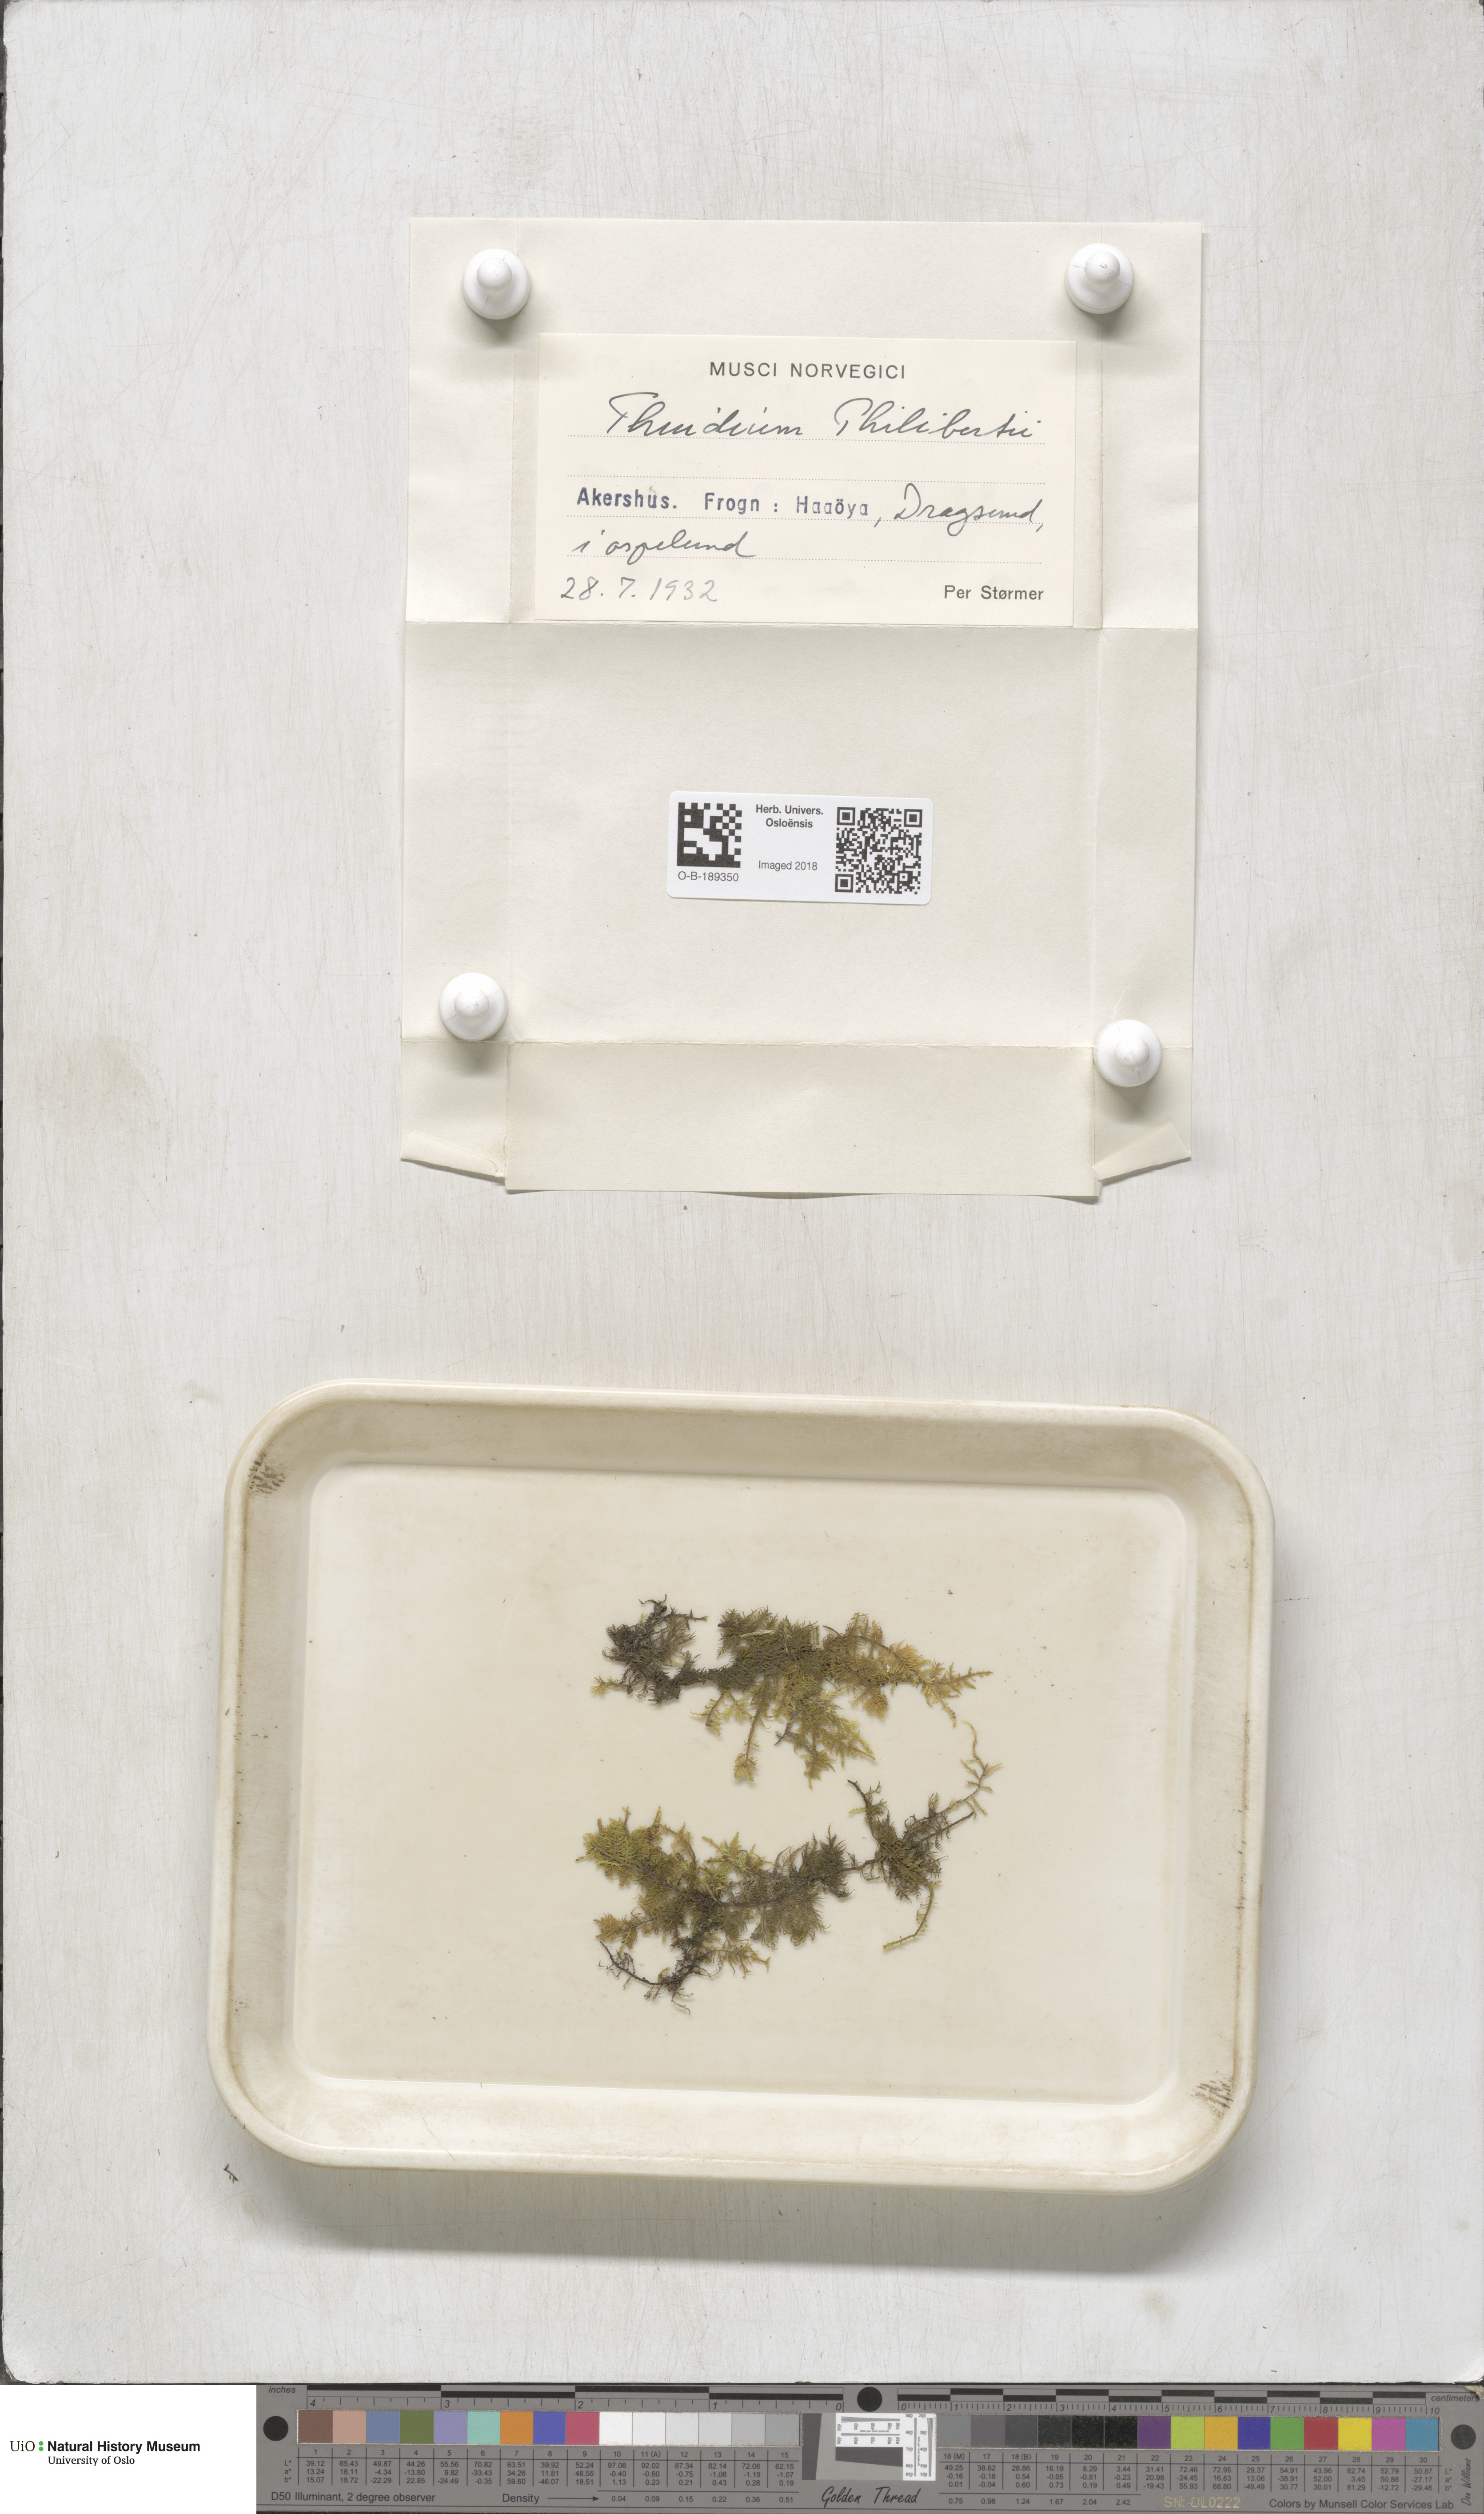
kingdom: Plantae
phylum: Bryophyta
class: Bryopsida
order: Hypnales
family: Thuidiaceae
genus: Thuidium
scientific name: Thuidium assimile
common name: Philibert's fern moss
